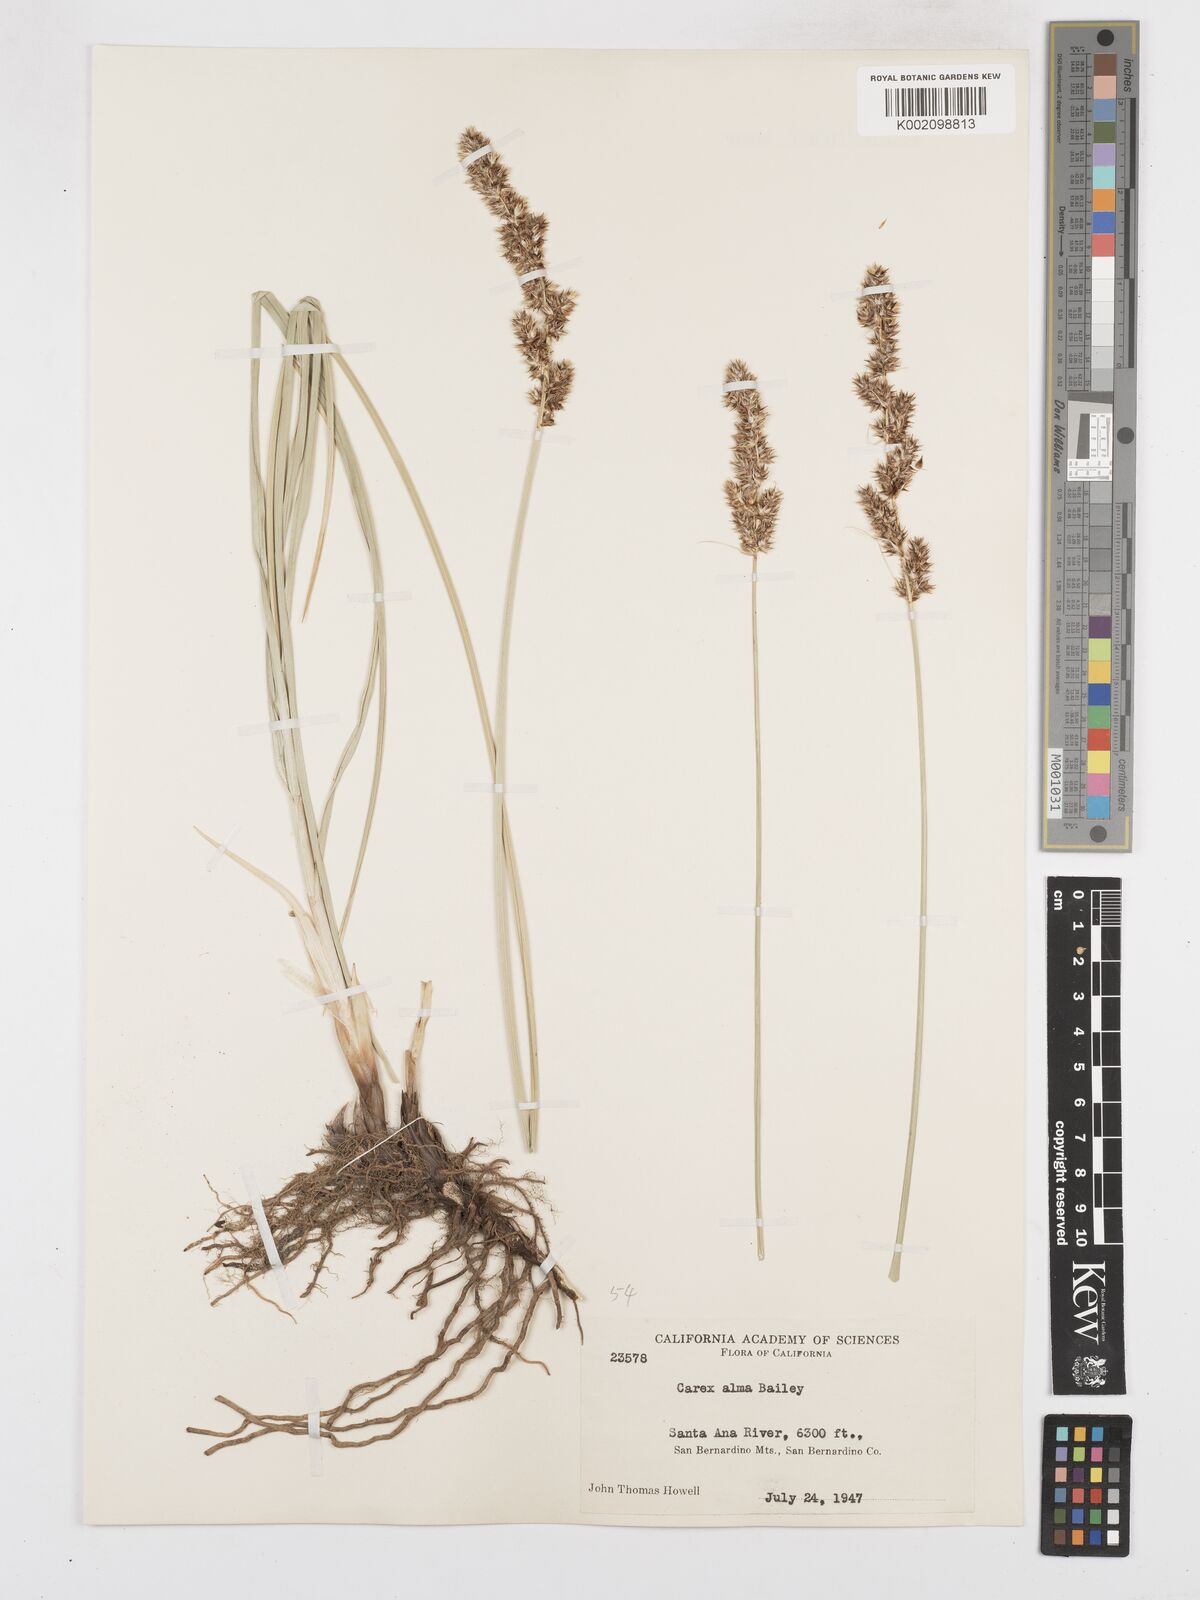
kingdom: Plantae
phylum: Tracheophyta
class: Liliopsida
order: Poales
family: Cyperaceae
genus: Carex
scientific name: Carex alma
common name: Alma sedge
